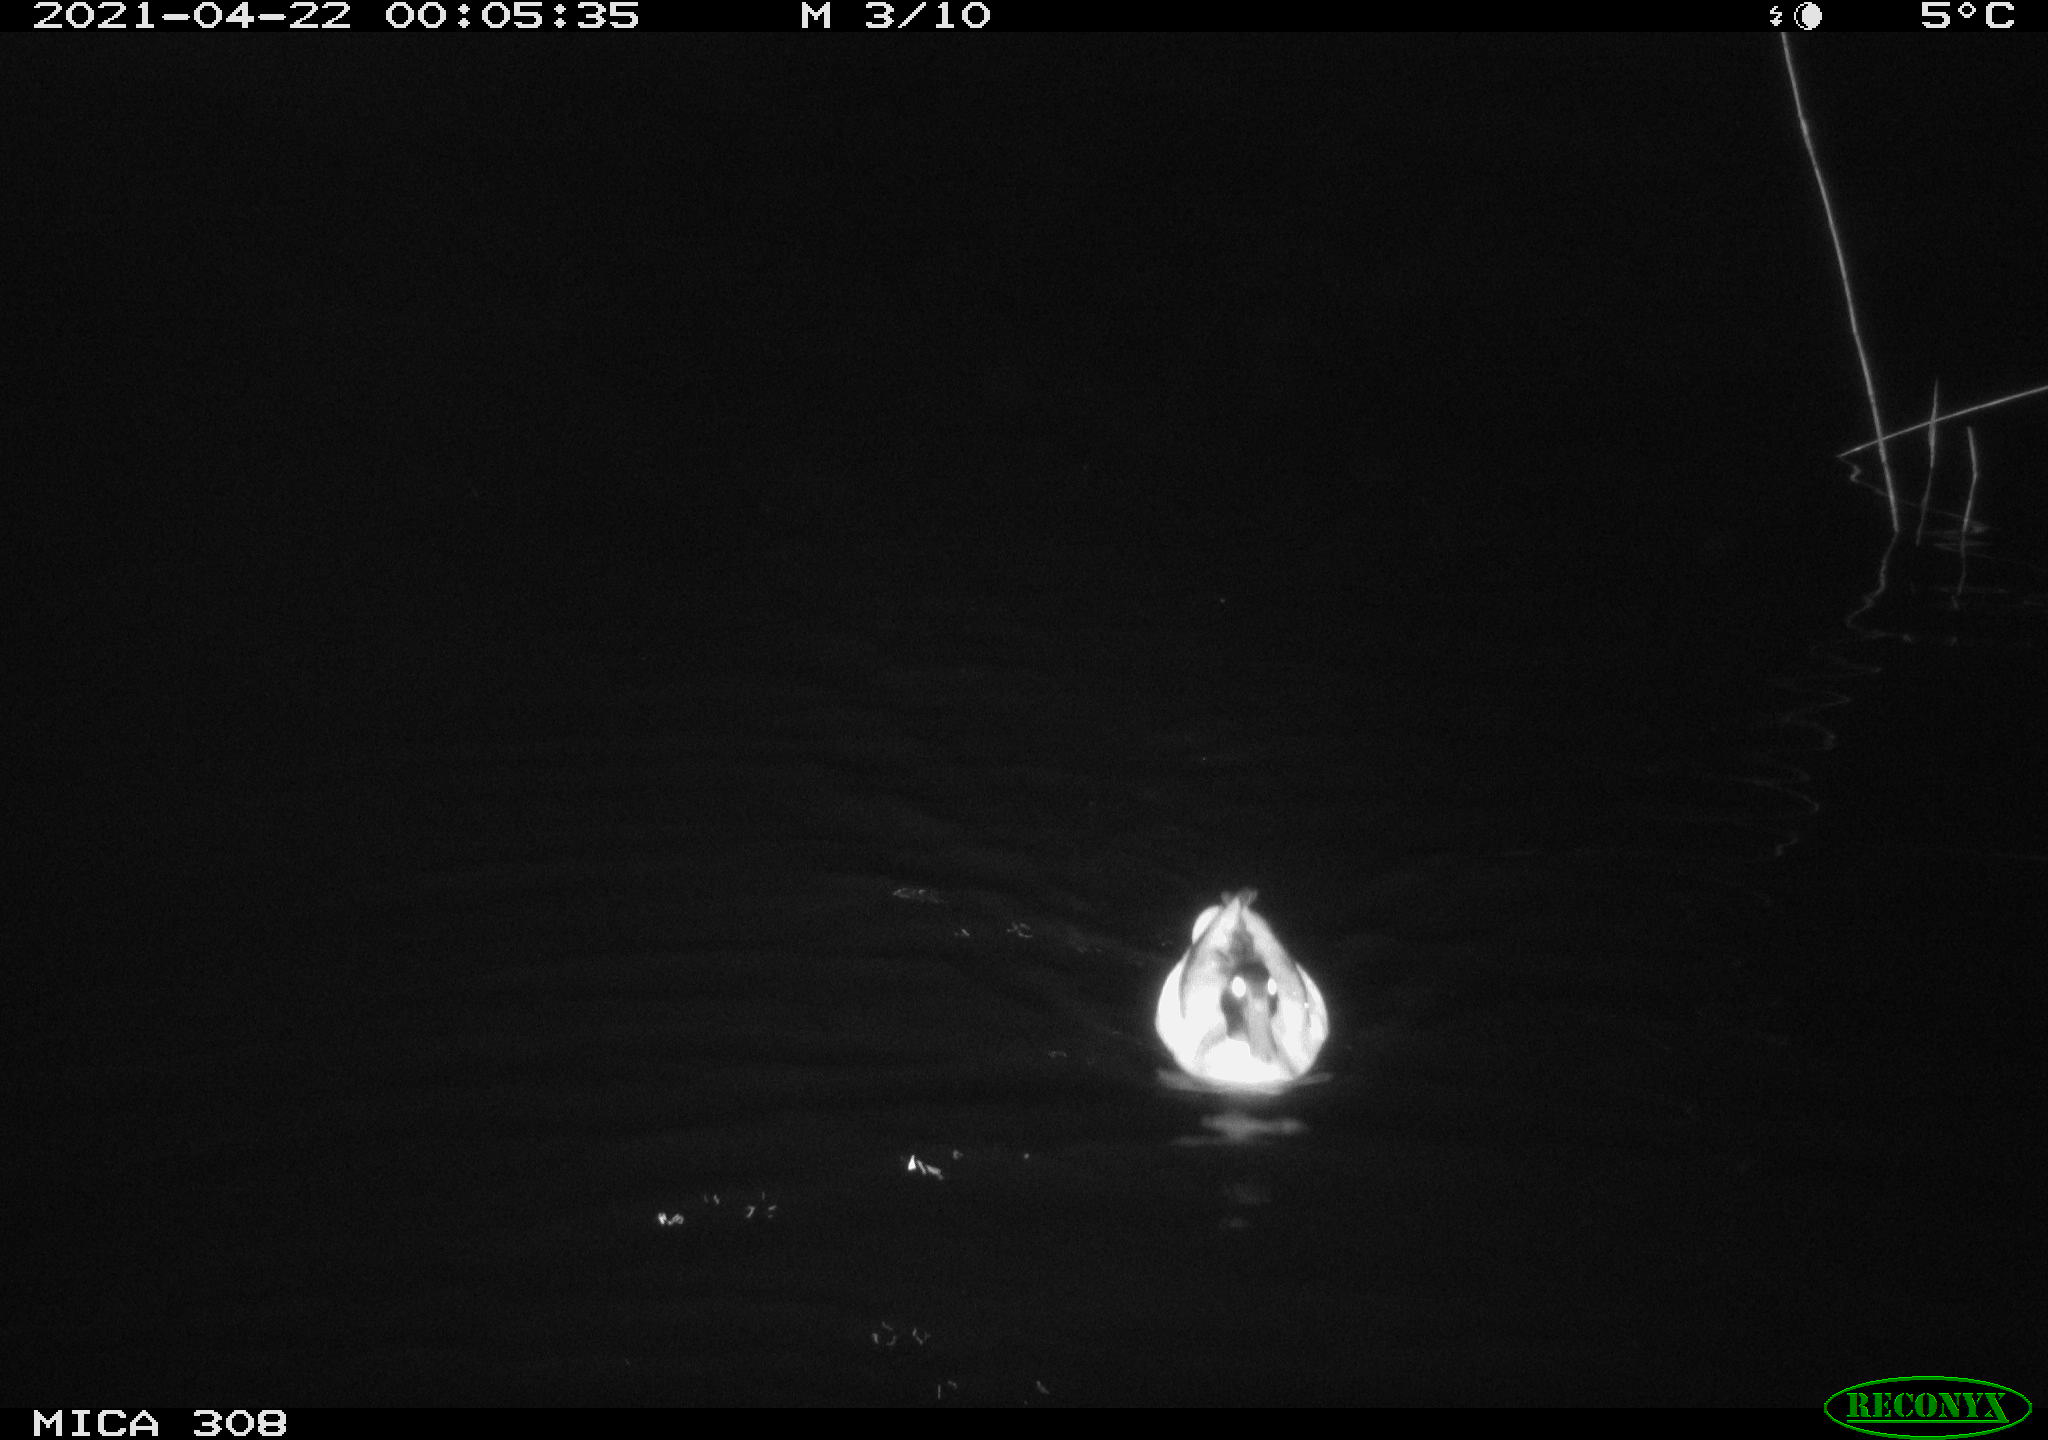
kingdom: Animalia
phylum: Chordata
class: Aves
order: Anseriformes
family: Anatidae
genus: Anas
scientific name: Anas platyrhynchos
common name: Mallard
